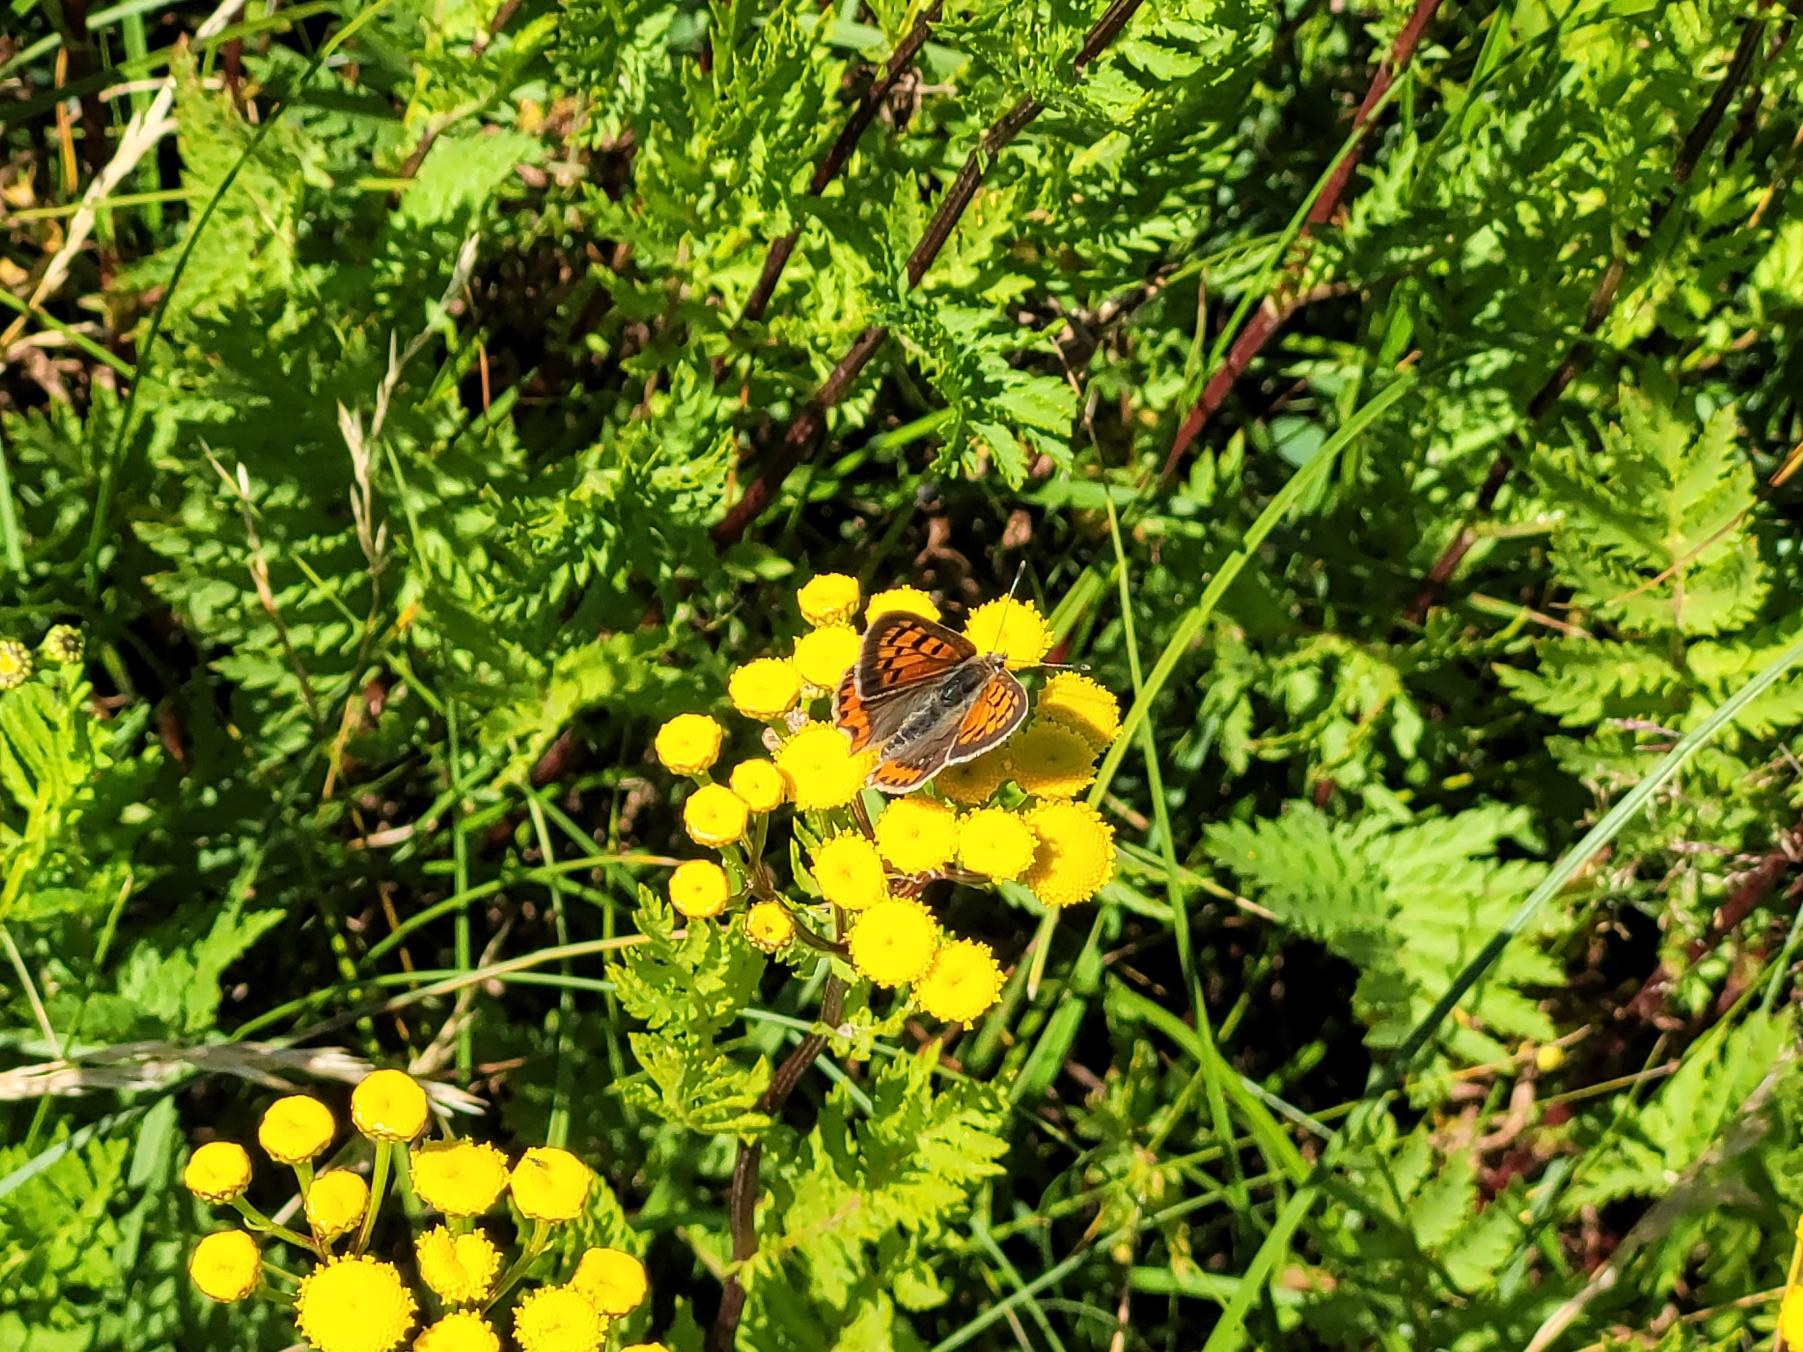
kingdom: Animalia
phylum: Arthropoda
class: Insecta
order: Lepidoptera
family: Lycaenidae
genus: Lycaena
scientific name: Lycaena phlaeas
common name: Lille ildfugl
